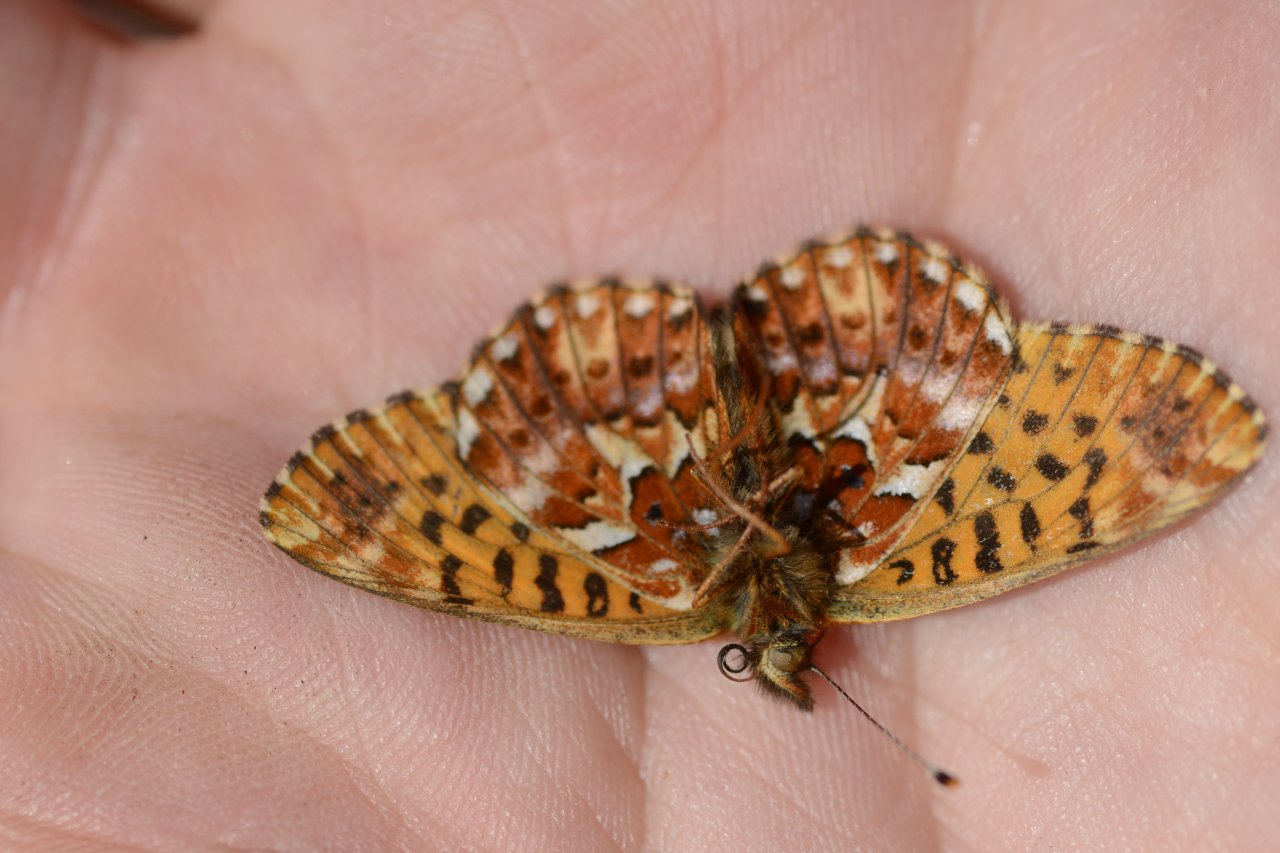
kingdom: Animalia
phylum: Arthropoda
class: Insecta
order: Lepidoptera
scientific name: Lepidoptera
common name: Butterflies
